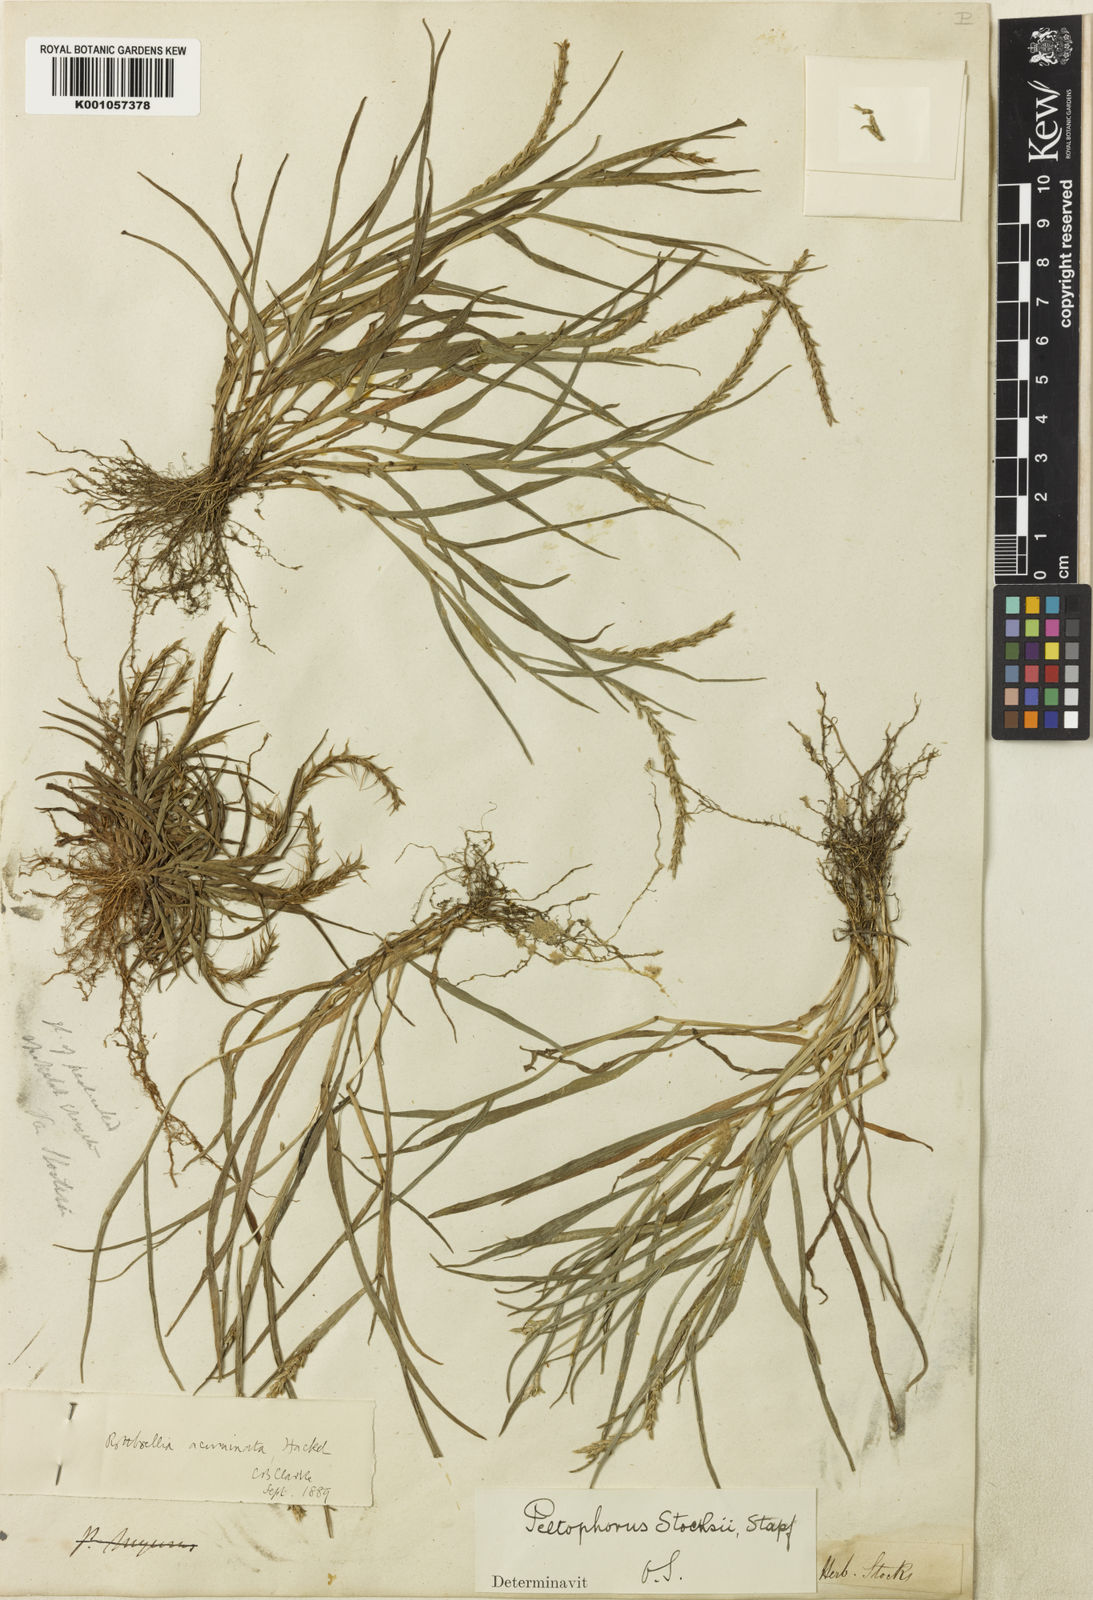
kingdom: Plantae
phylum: Tracheophyta
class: Liliopsida
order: Poales
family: Poaceae
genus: Glyphochloa
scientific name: Glyphochloa acuminata
